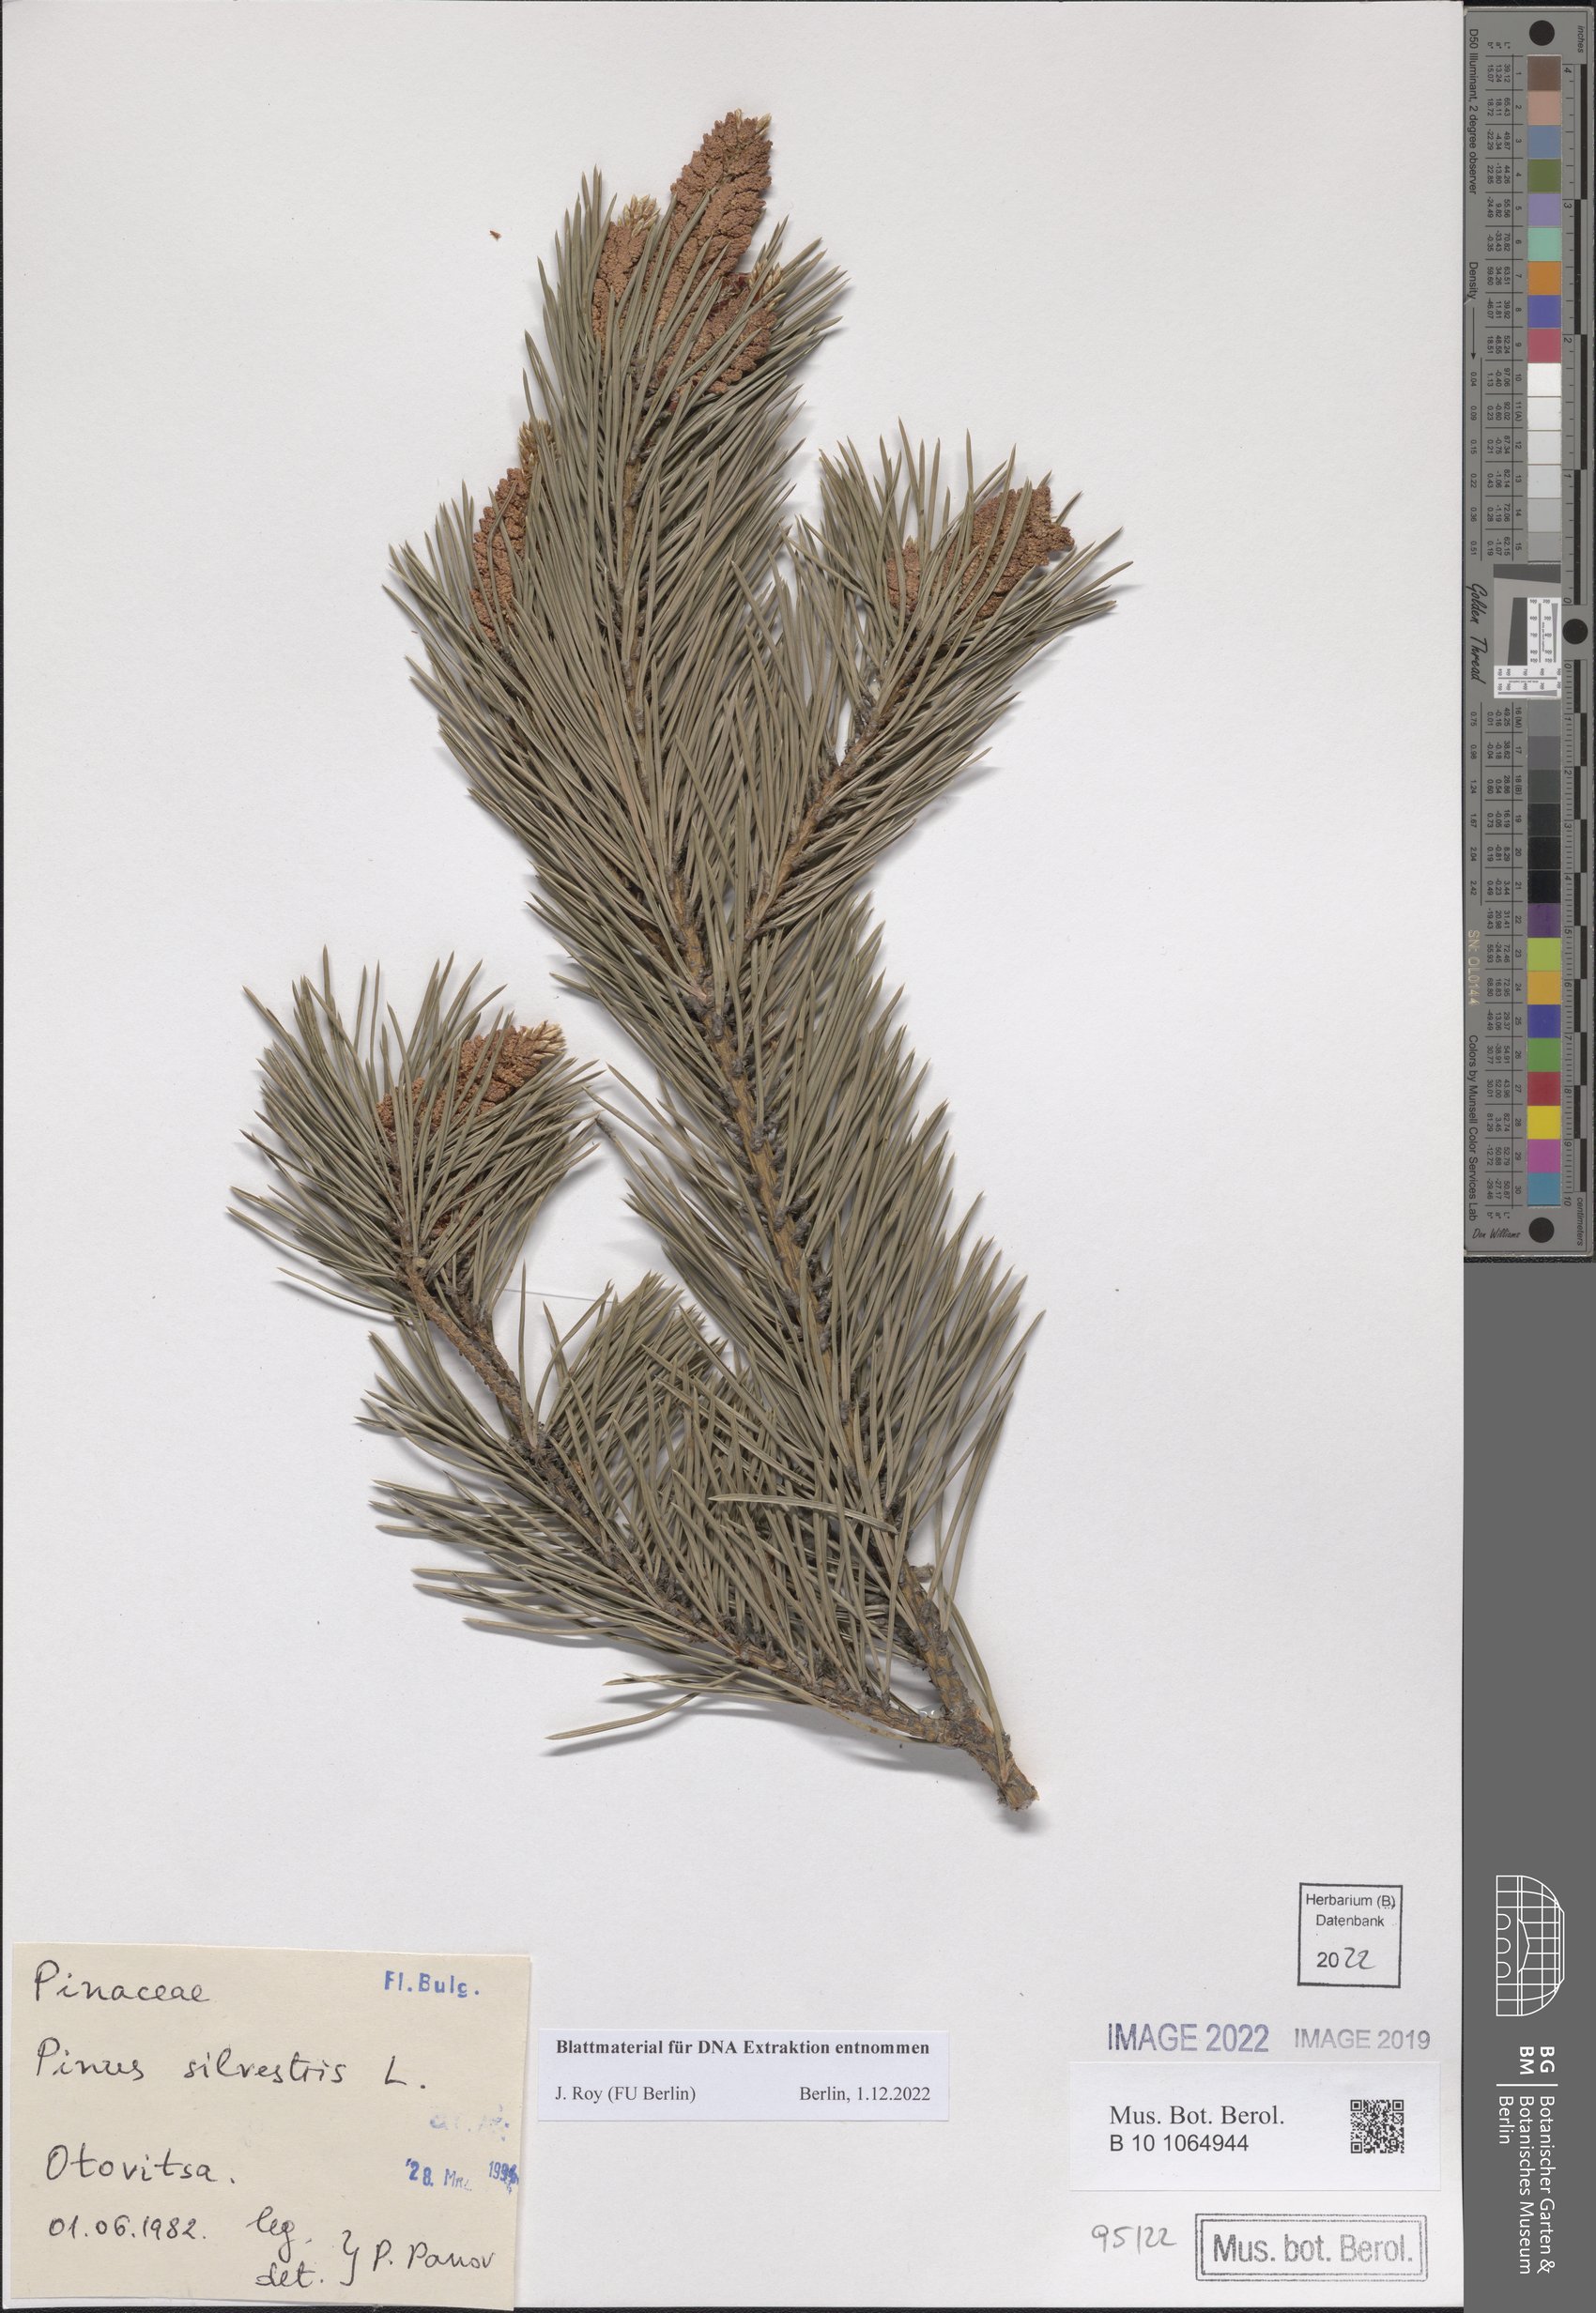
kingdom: Plantae
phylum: Tracheophyta
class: Pinopsida
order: Pinales
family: Pinaceae
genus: Pinus
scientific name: Pinus sylvestris
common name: Scots pine
